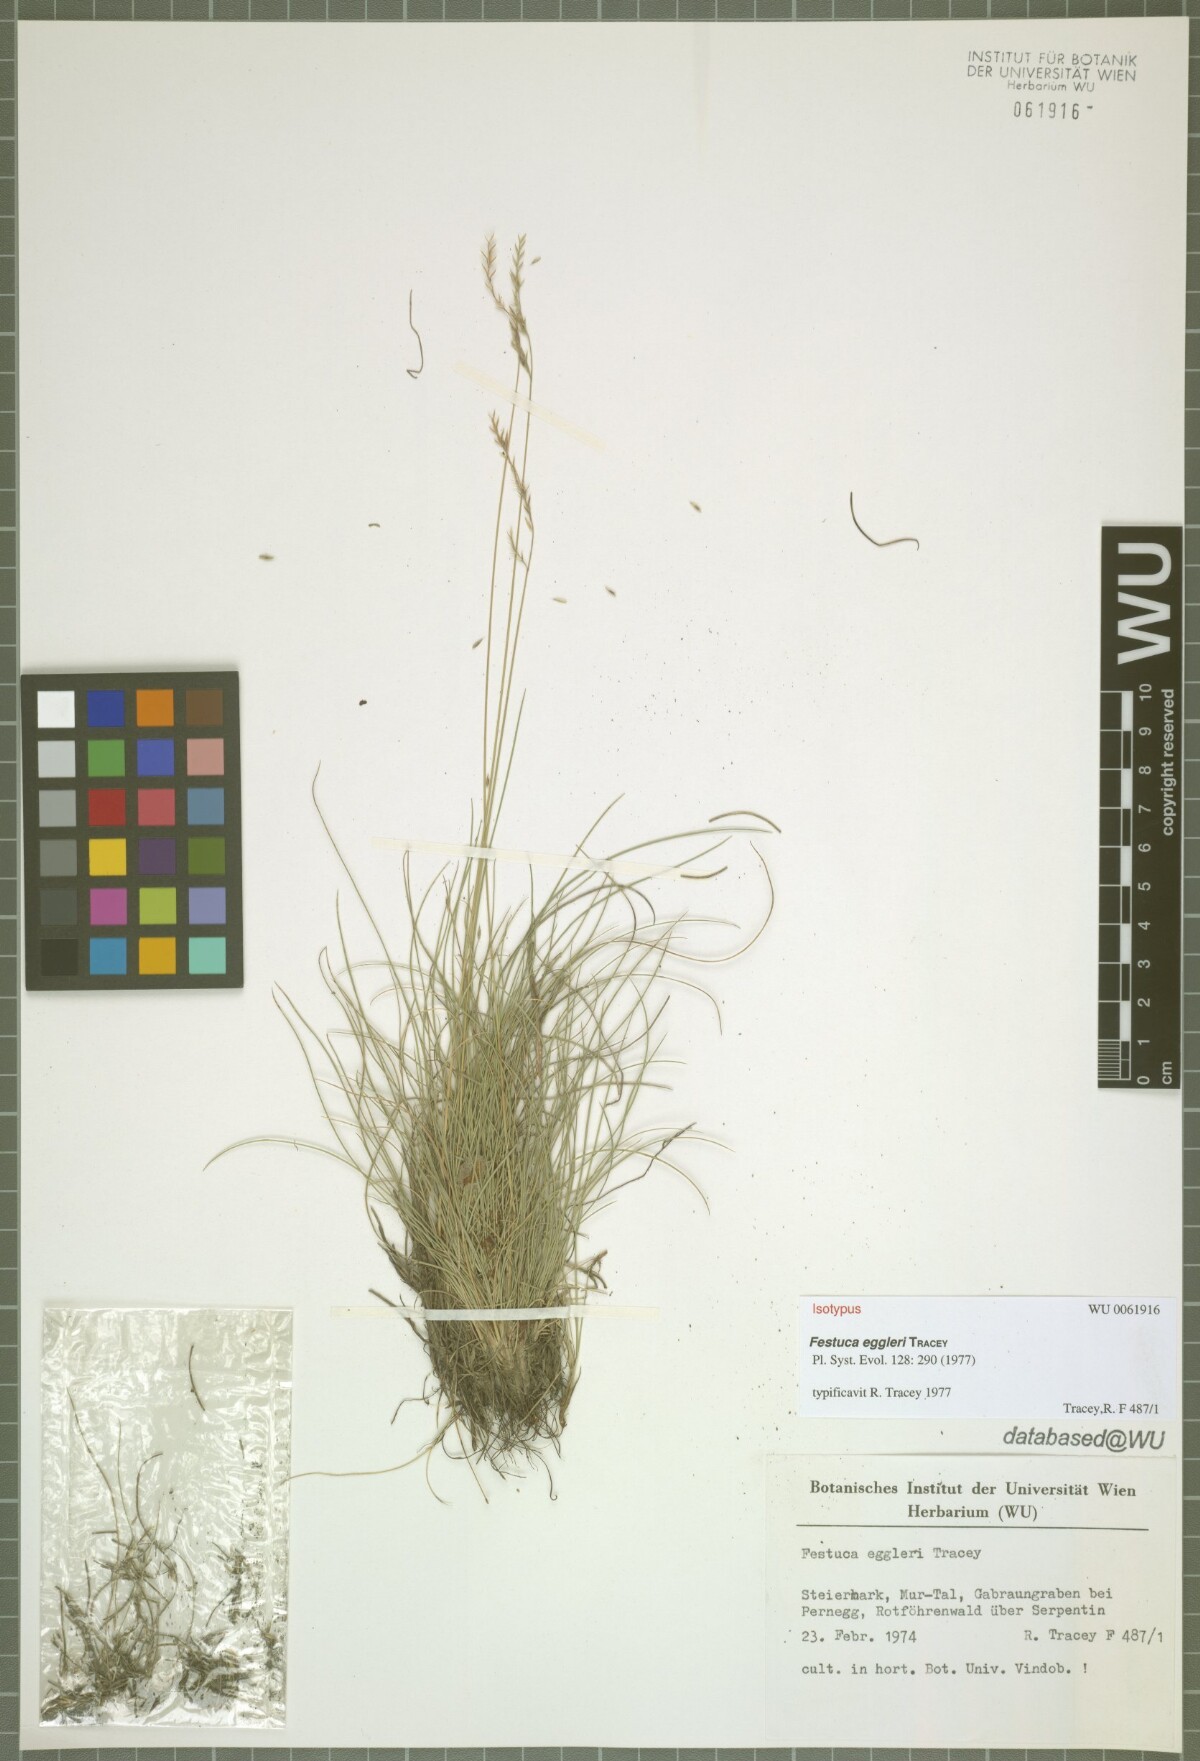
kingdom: Plantae
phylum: Tracheophyta
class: Liliopsida
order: Poales
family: Poaceae
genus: Festuca
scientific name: Festuca eggleri
